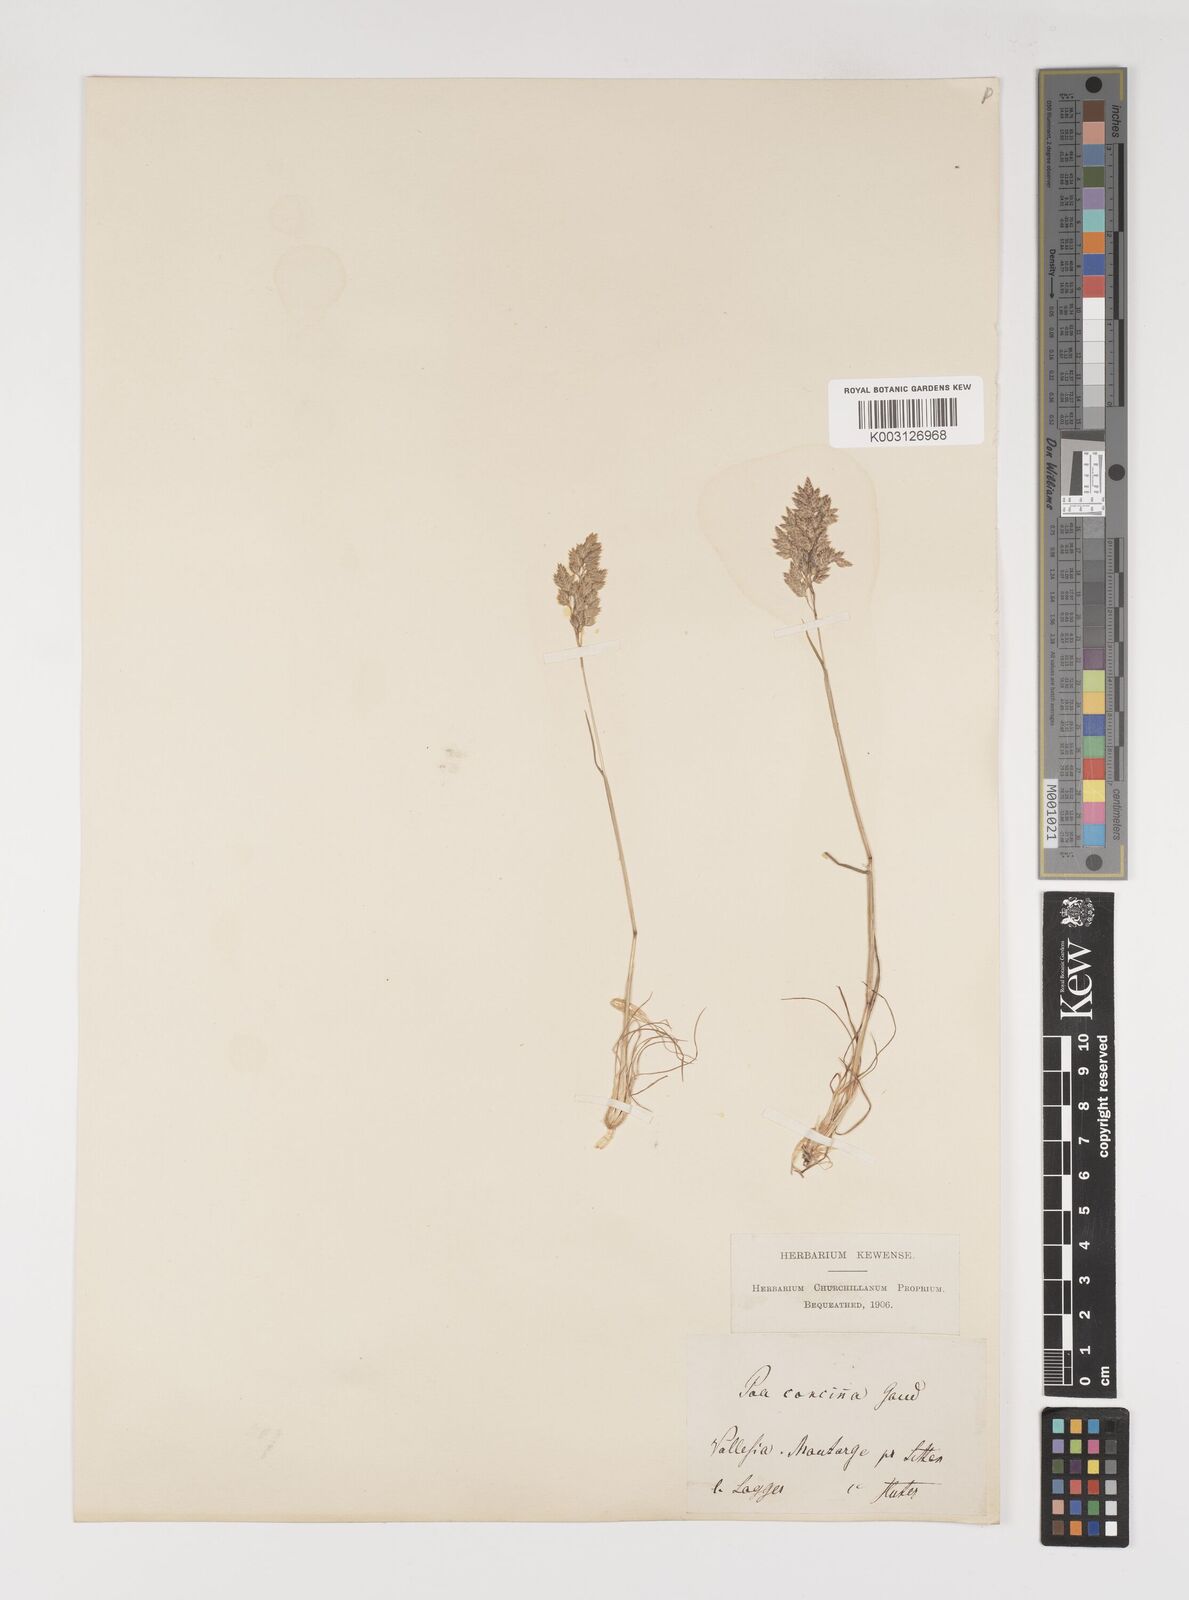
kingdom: Plantae
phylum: Tracheophyta
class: Liliopsida
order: Poales
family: Poaceae
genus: Poa
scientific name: Poa perconcinna
